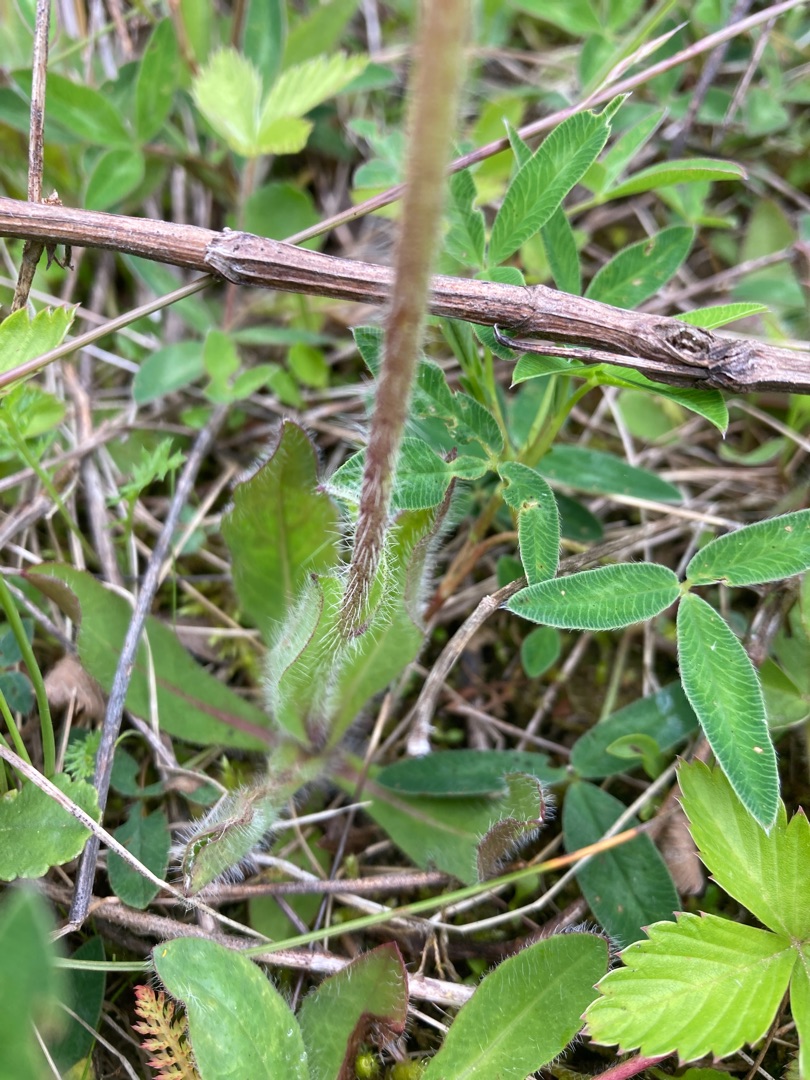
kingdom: Plantae
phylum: Tracheophyta
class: Magnoliopsida
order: Asterales
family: Asteraceae
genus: Pilosella
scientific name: Pilosella aurantiaca
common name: Pomerans-høgeurt
